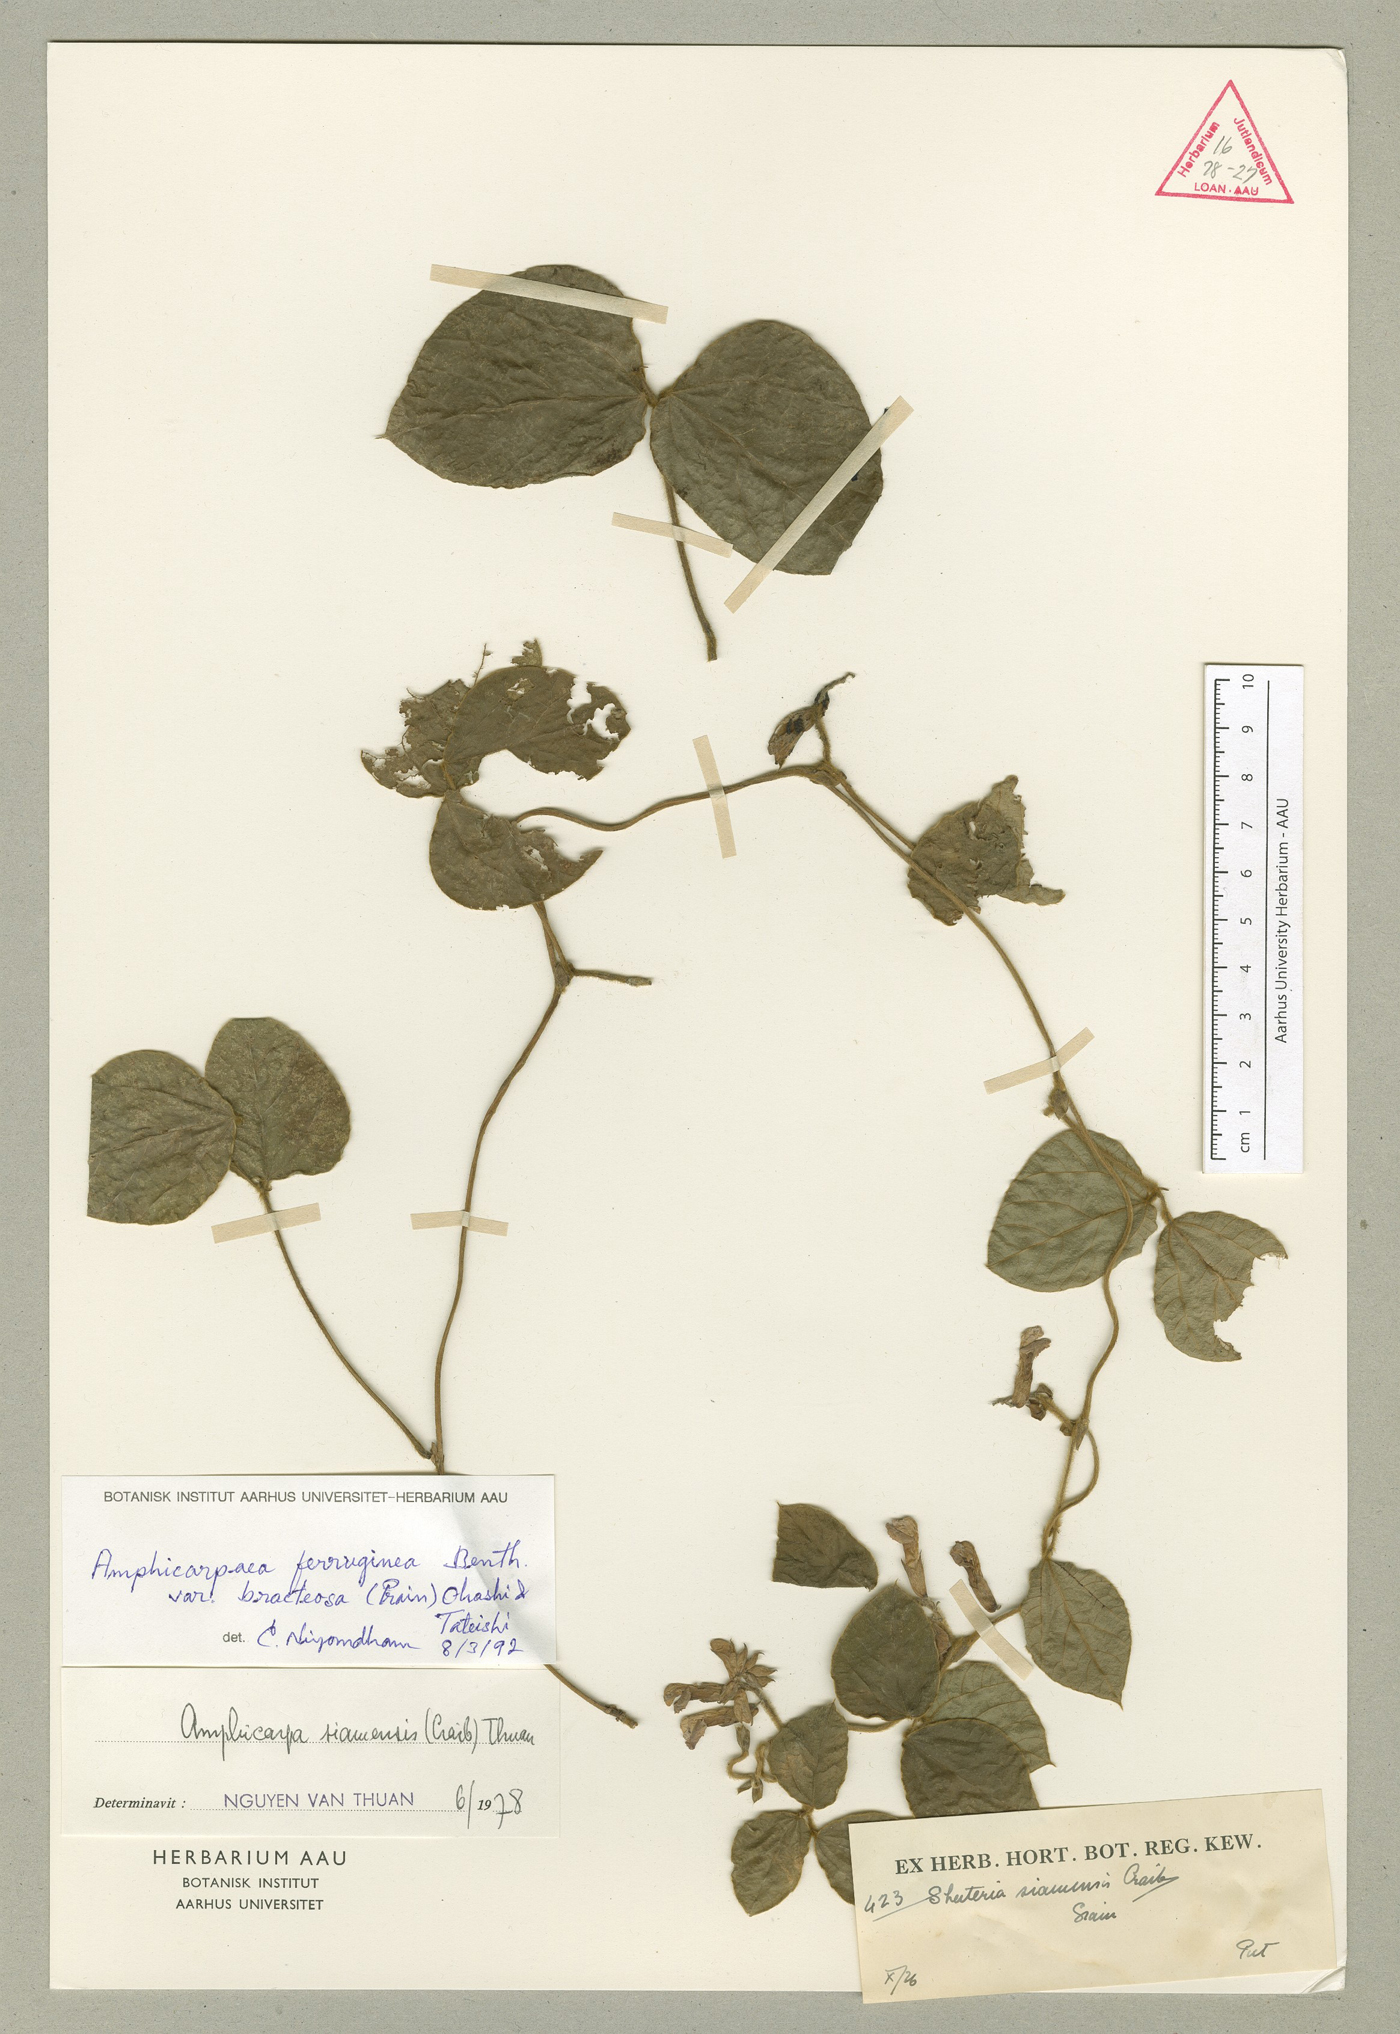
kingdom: Plantae
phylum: Tracheophyta
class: Magnoliopsida
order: Fabales
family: Fabaceae
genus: Amphicarpaea
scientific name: Amphicarpaea ferruginea
